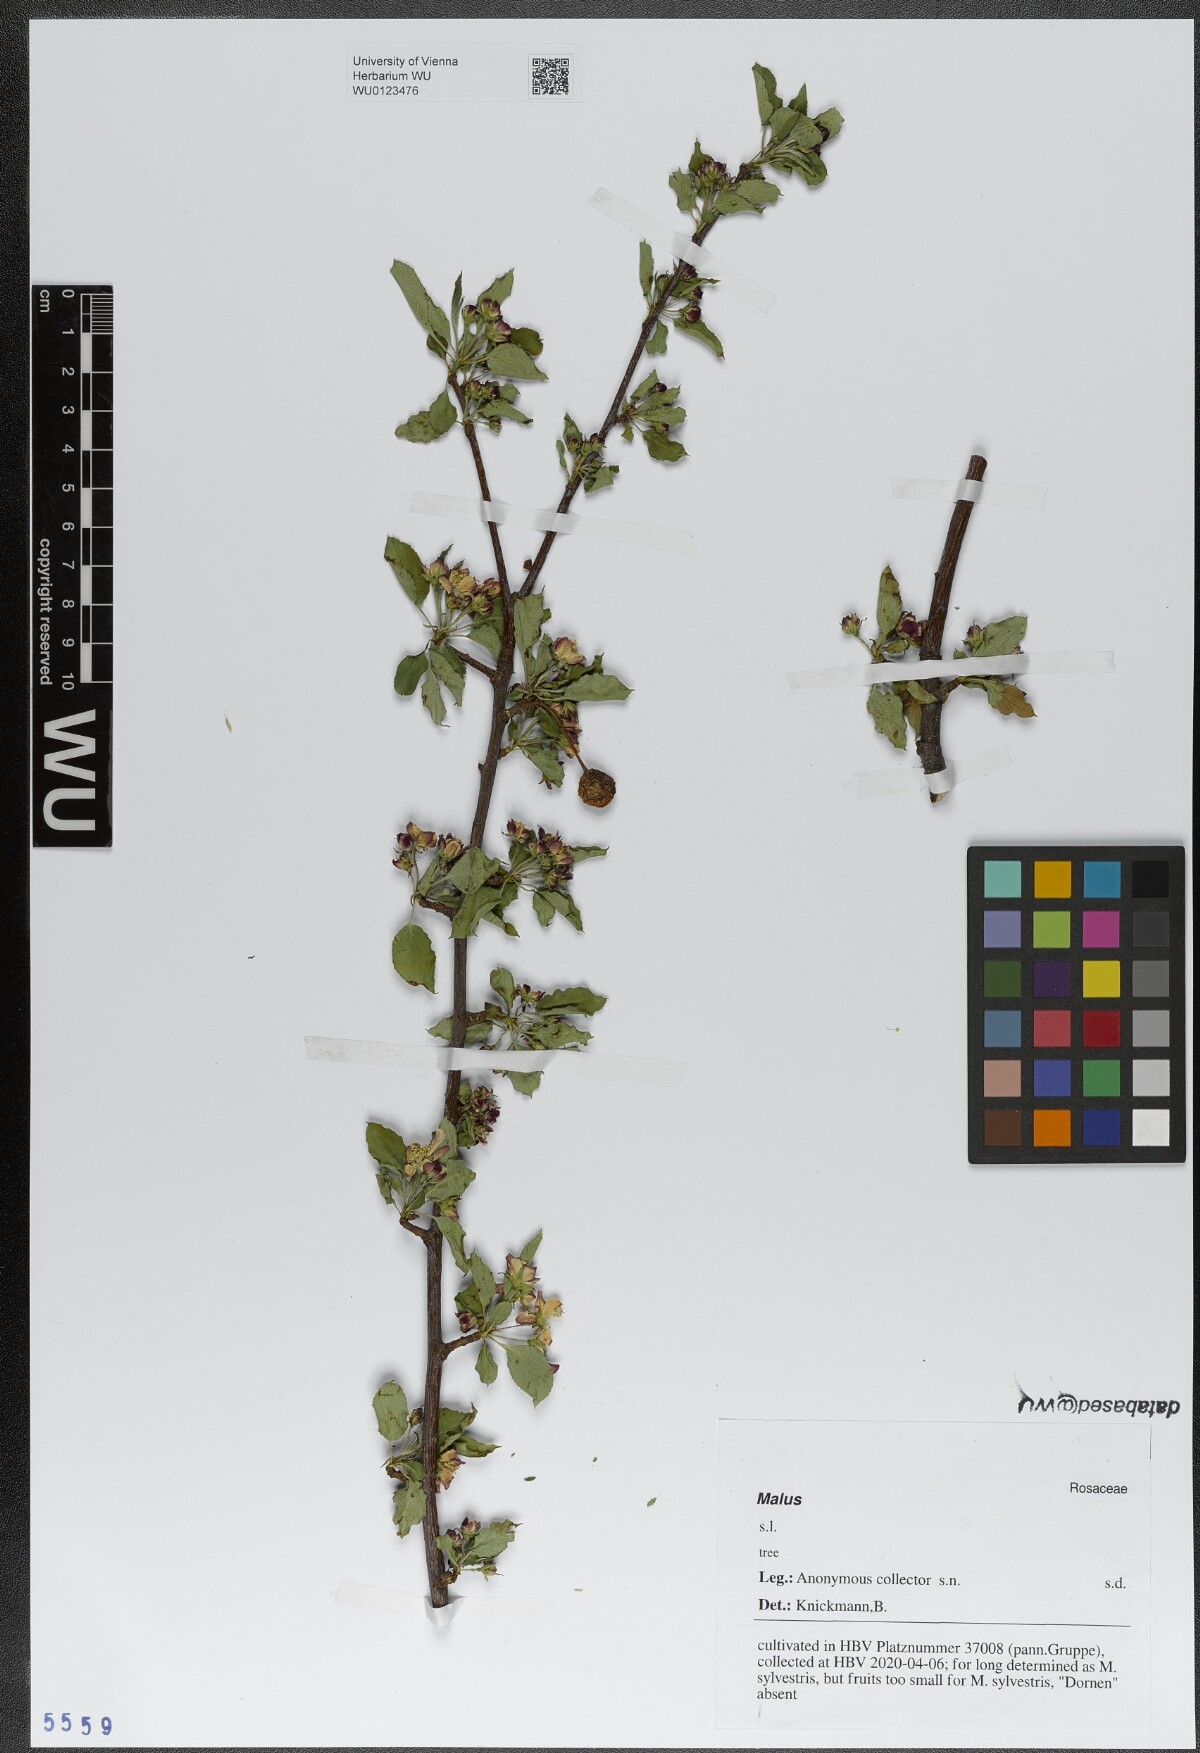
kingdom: Plantae
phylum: Tracheophyta
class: Magnoliopsida
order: Rosales
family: Rosaceae
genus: Malus
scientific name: Malus
